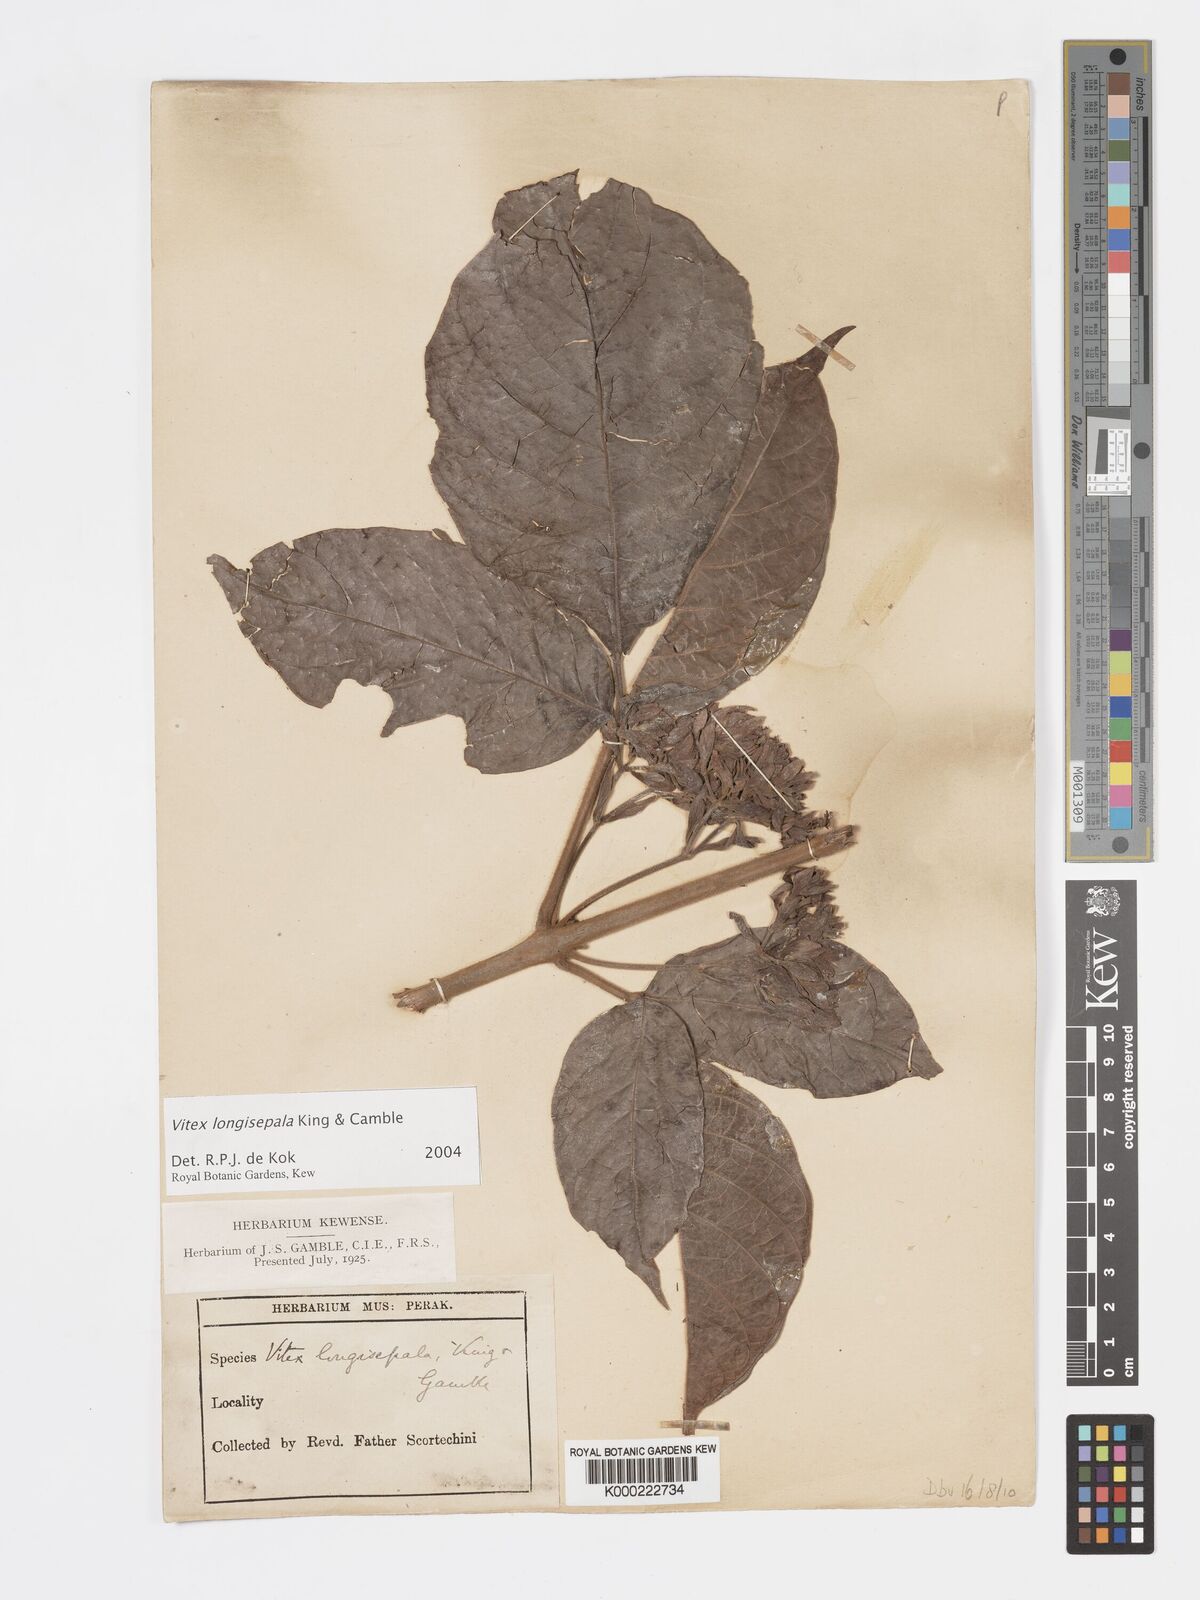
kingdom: Plantae
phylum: Tracheophyta
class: Magnoliopsida
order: Lamiales
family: Lamiaceae
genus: Vitex
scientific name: Vitex longisepala
